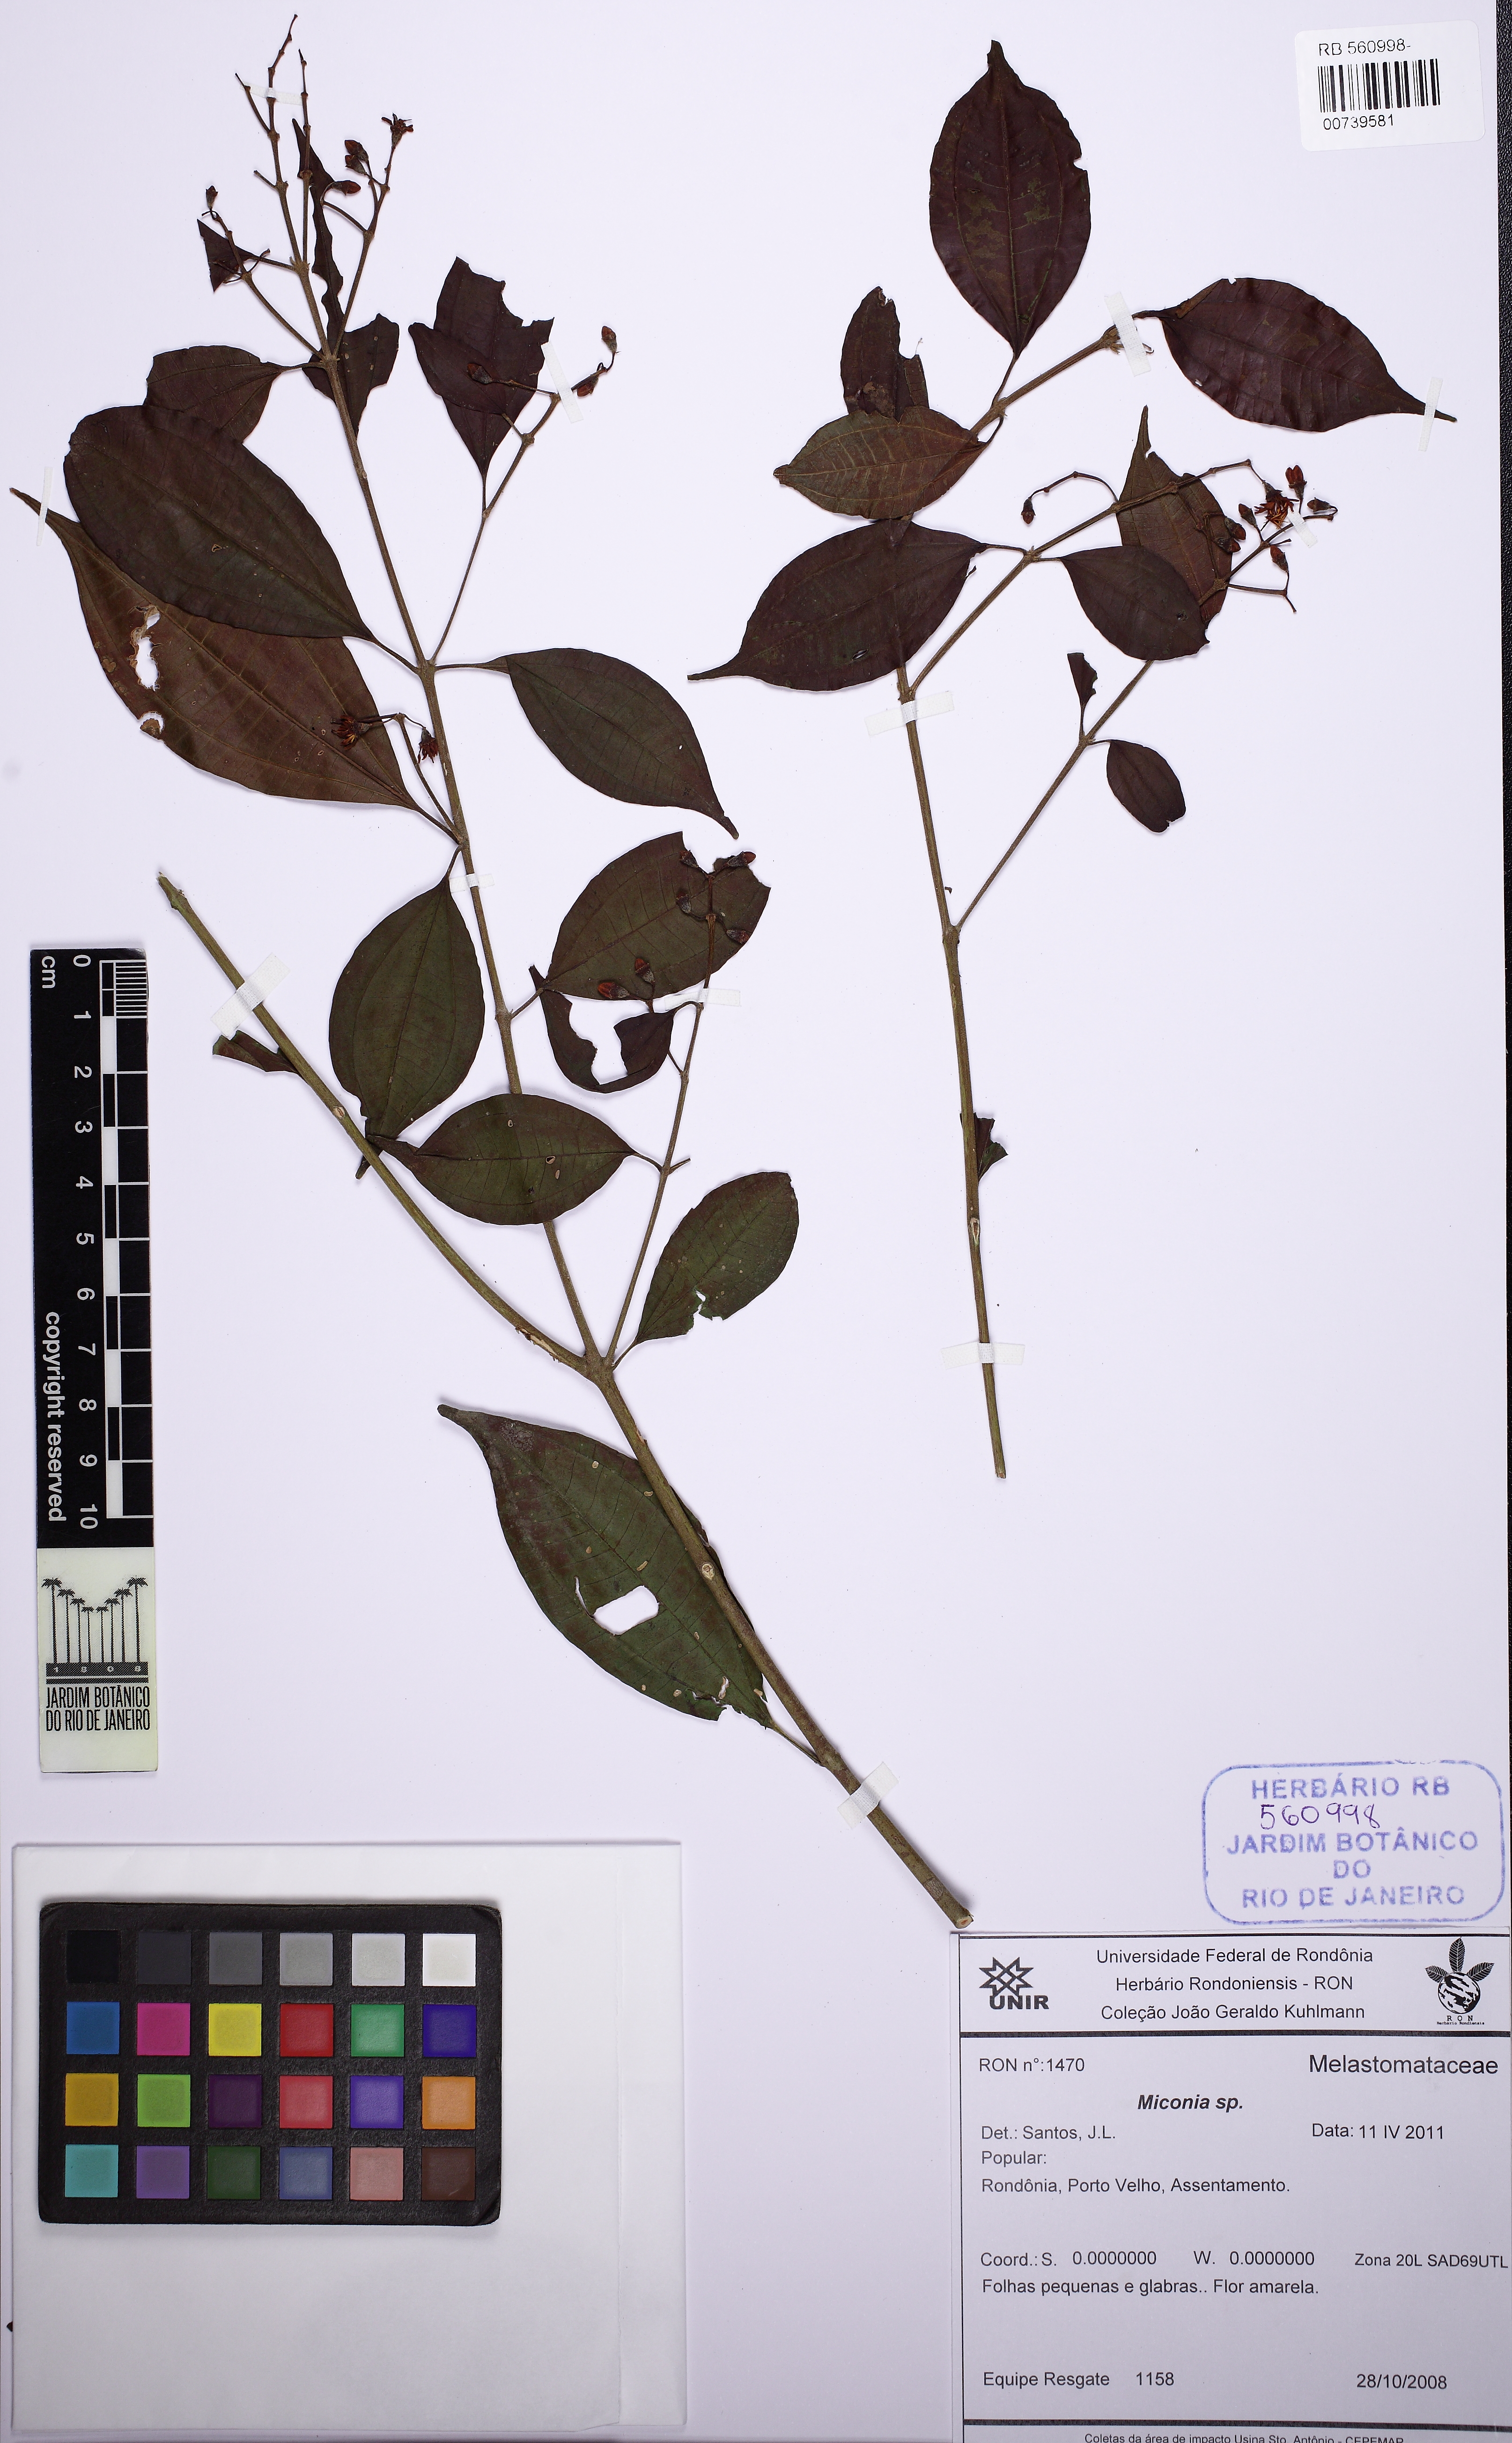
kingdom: Plantae
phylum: Tracheophyta
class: Magnoliopsida
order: Myrtales
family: Melastomataceae
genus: Miconia
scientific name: Miconia rimachii
